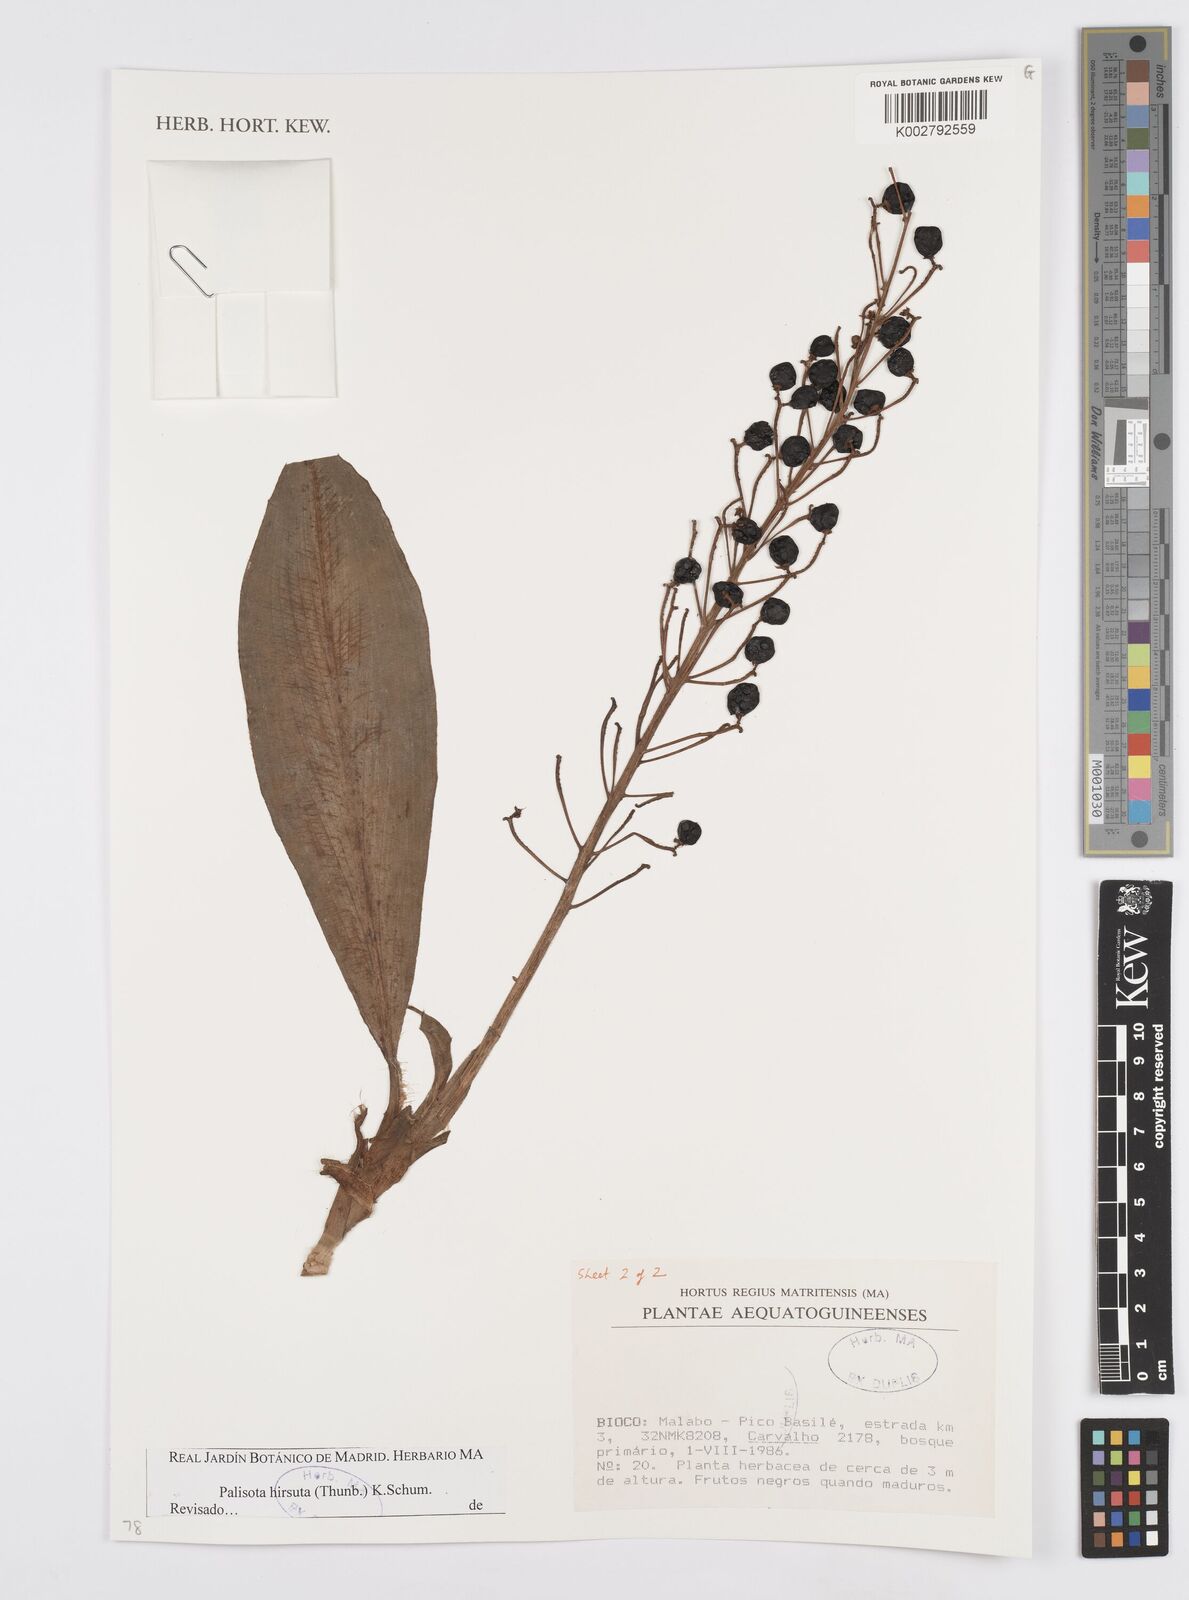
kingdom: Plantae
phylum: Tracheophyta
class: Liliopsida
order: Commelinales
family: Commelinaceae
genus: Palisota
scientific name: Palisota hirsuta
